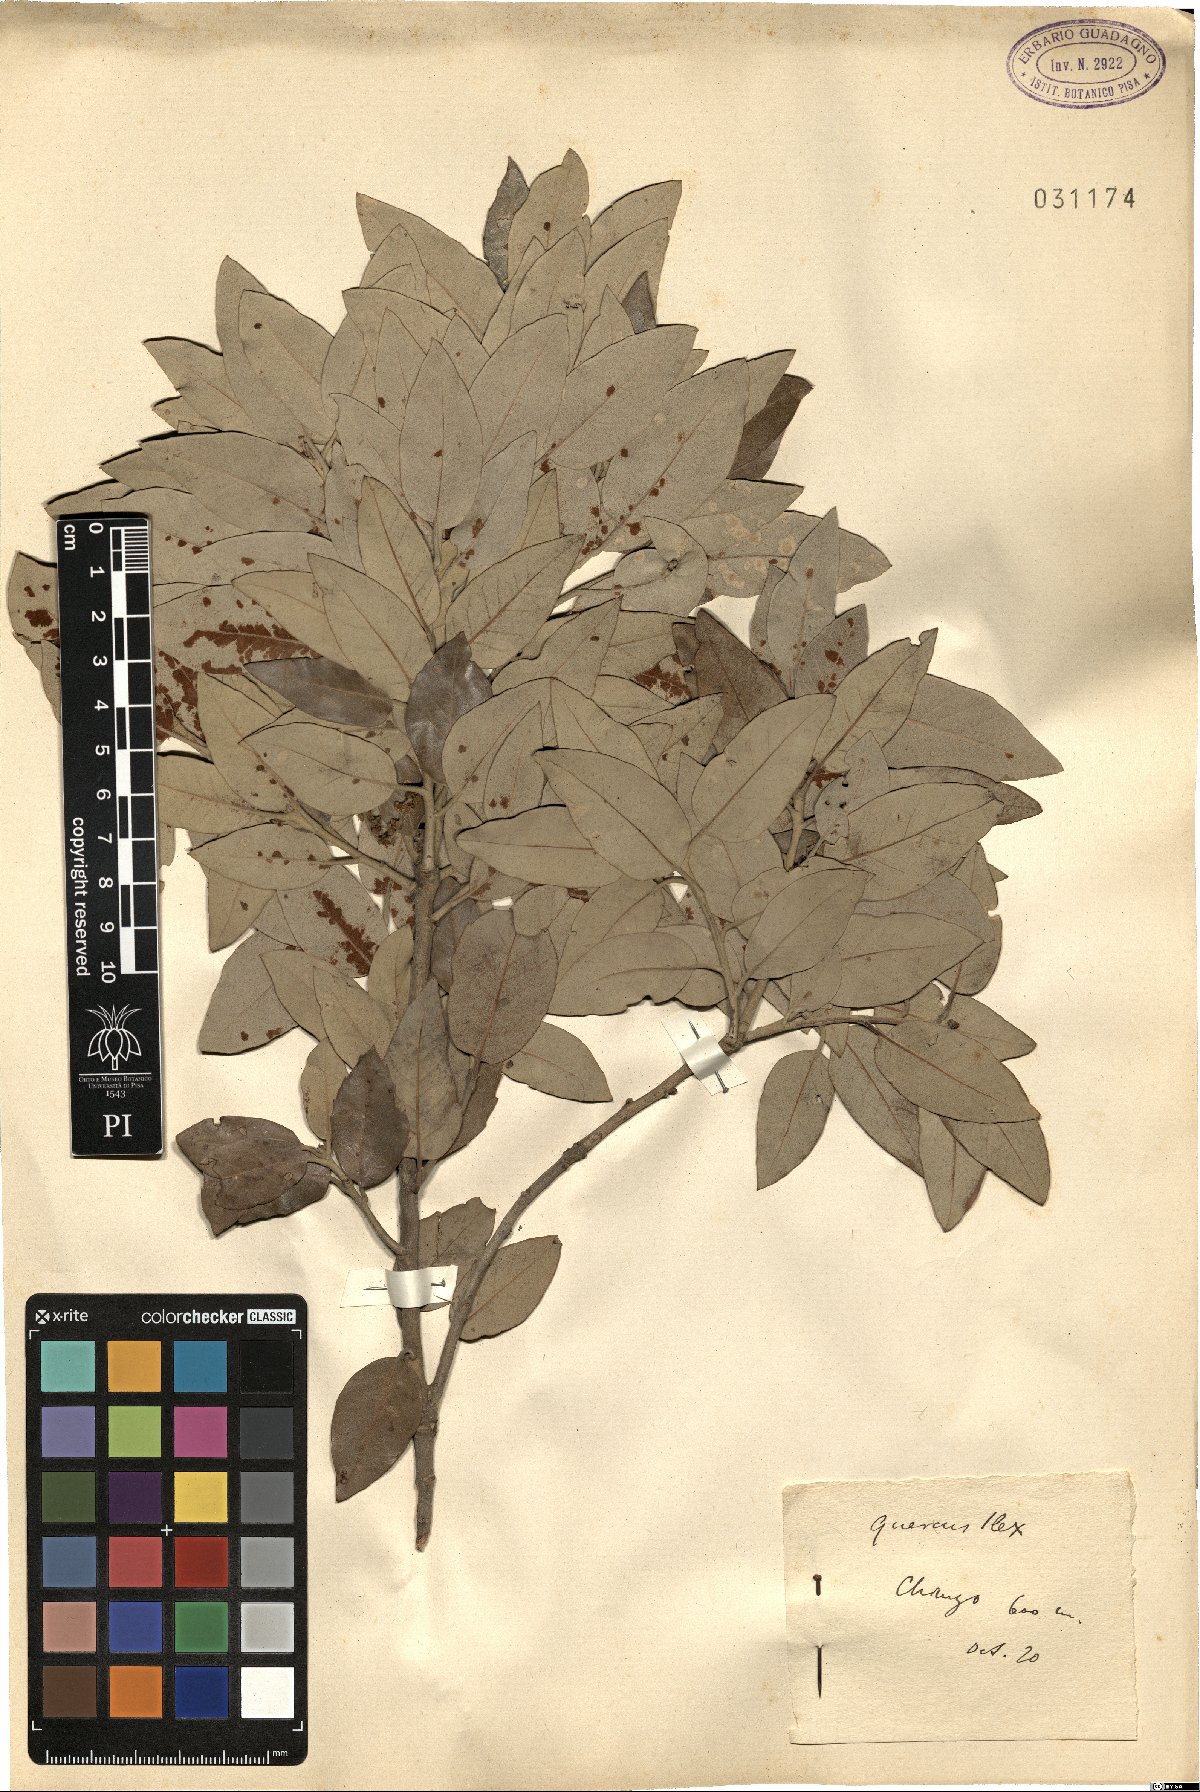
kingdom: Plantae
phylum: Tracheophyta
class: Magnoliopsida
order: Fagales
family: Fagaceae
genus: Quercus
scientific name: Quercus ilex
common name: Evergreen oak
